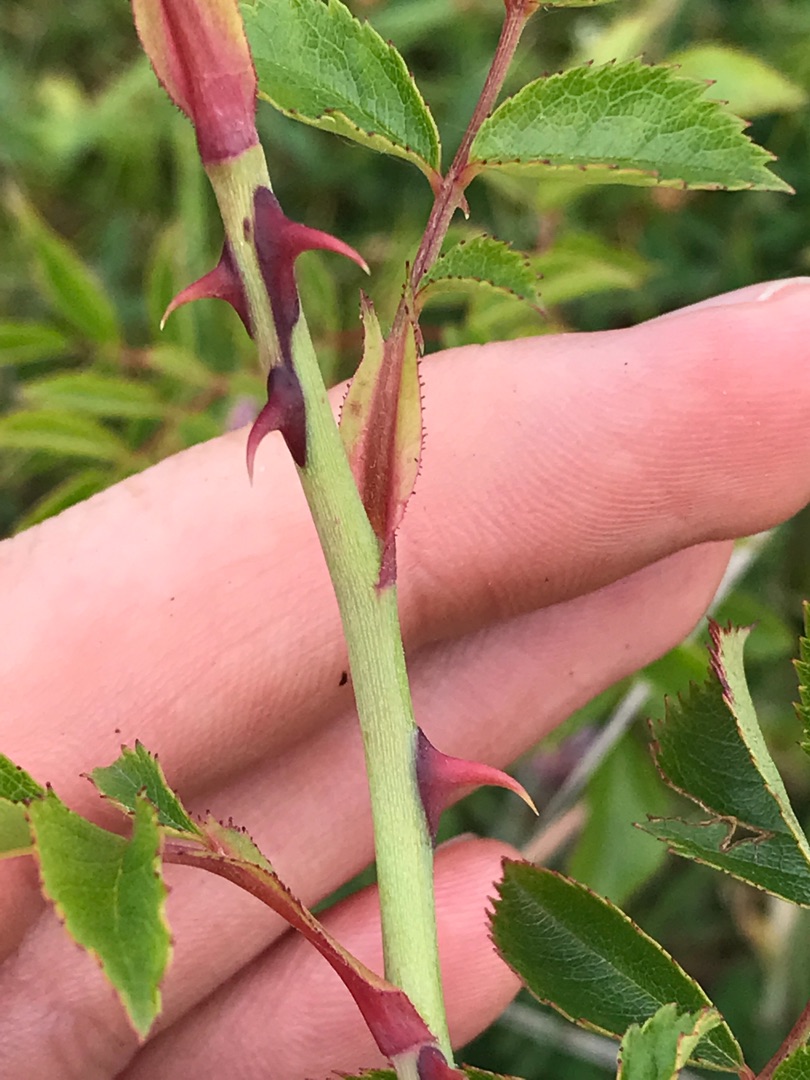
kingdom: Plantae
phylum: Tracheophyta
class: Magnoliopsida
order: Rosales
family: Rosaceae
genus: Rosa
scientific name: Rosa canina
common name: Glat hunde-rose
